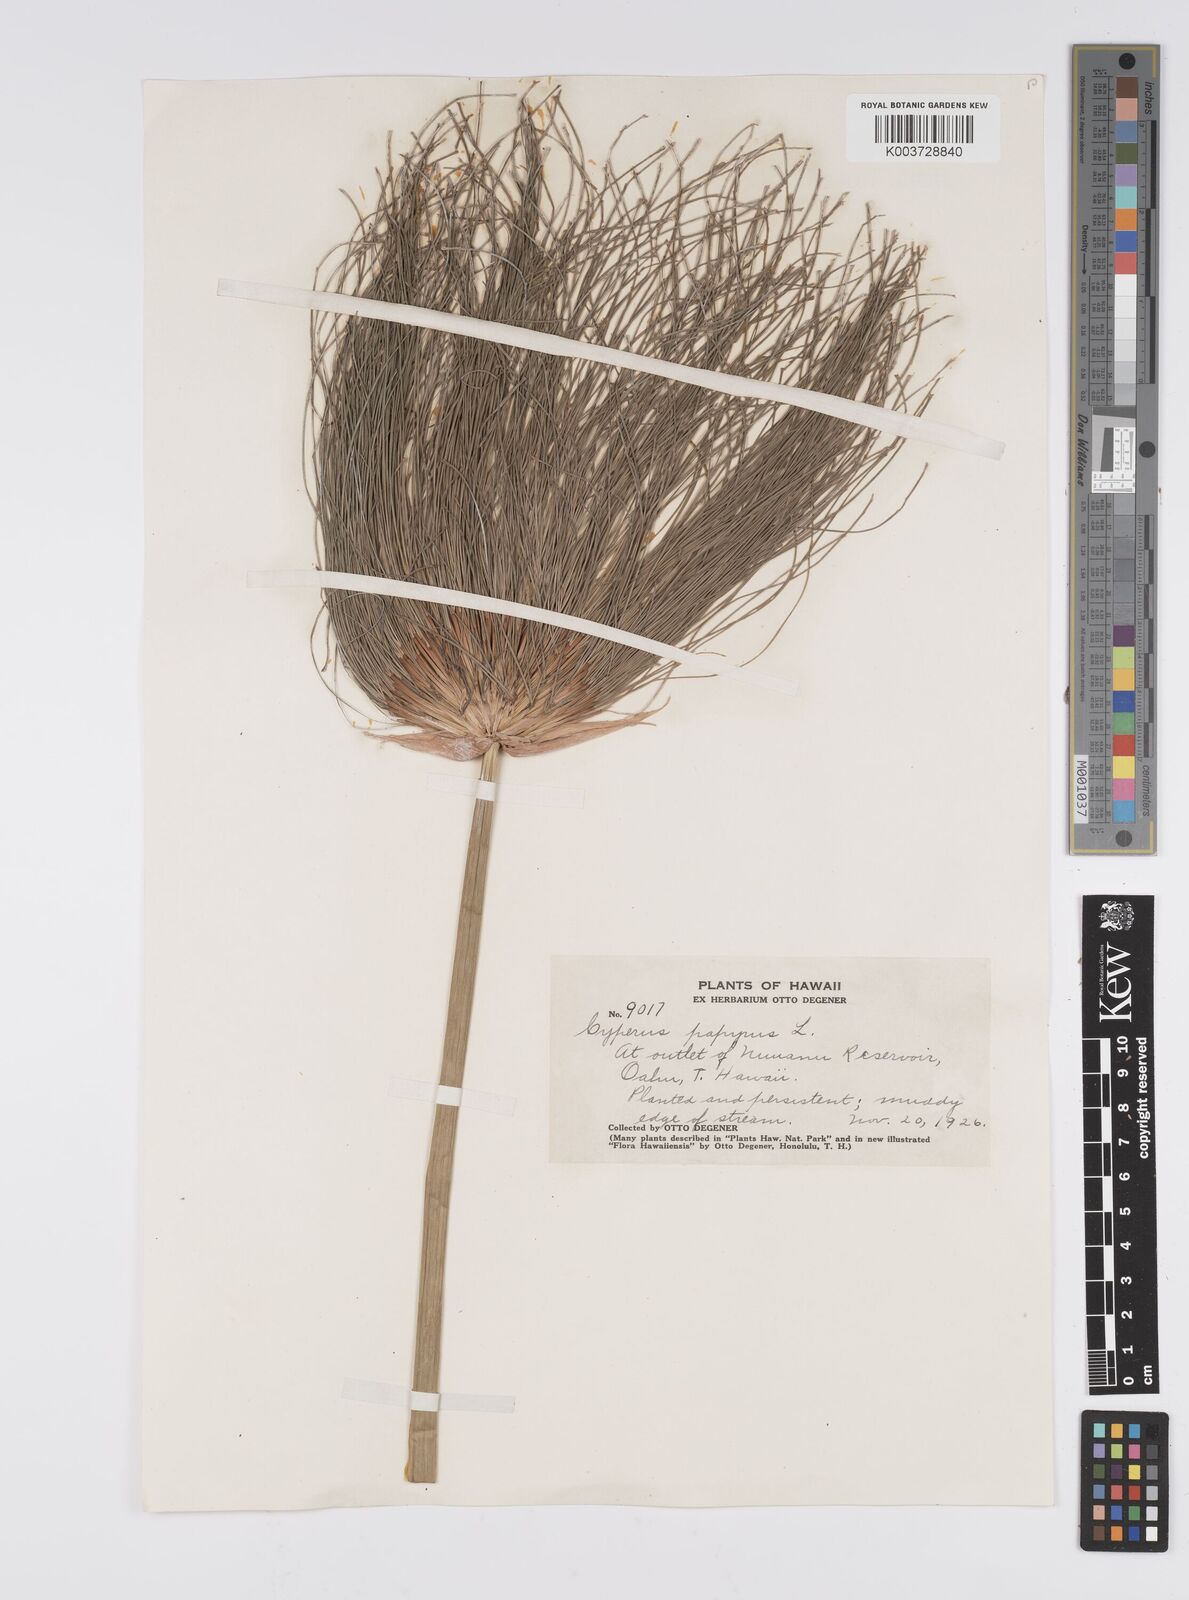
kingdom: Plantae
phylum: Tracheophyta
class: Liliopsida
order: Poales
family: Cyperaceae
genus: Cyperus
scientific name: Cyperus papyrus
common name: Papyrus
